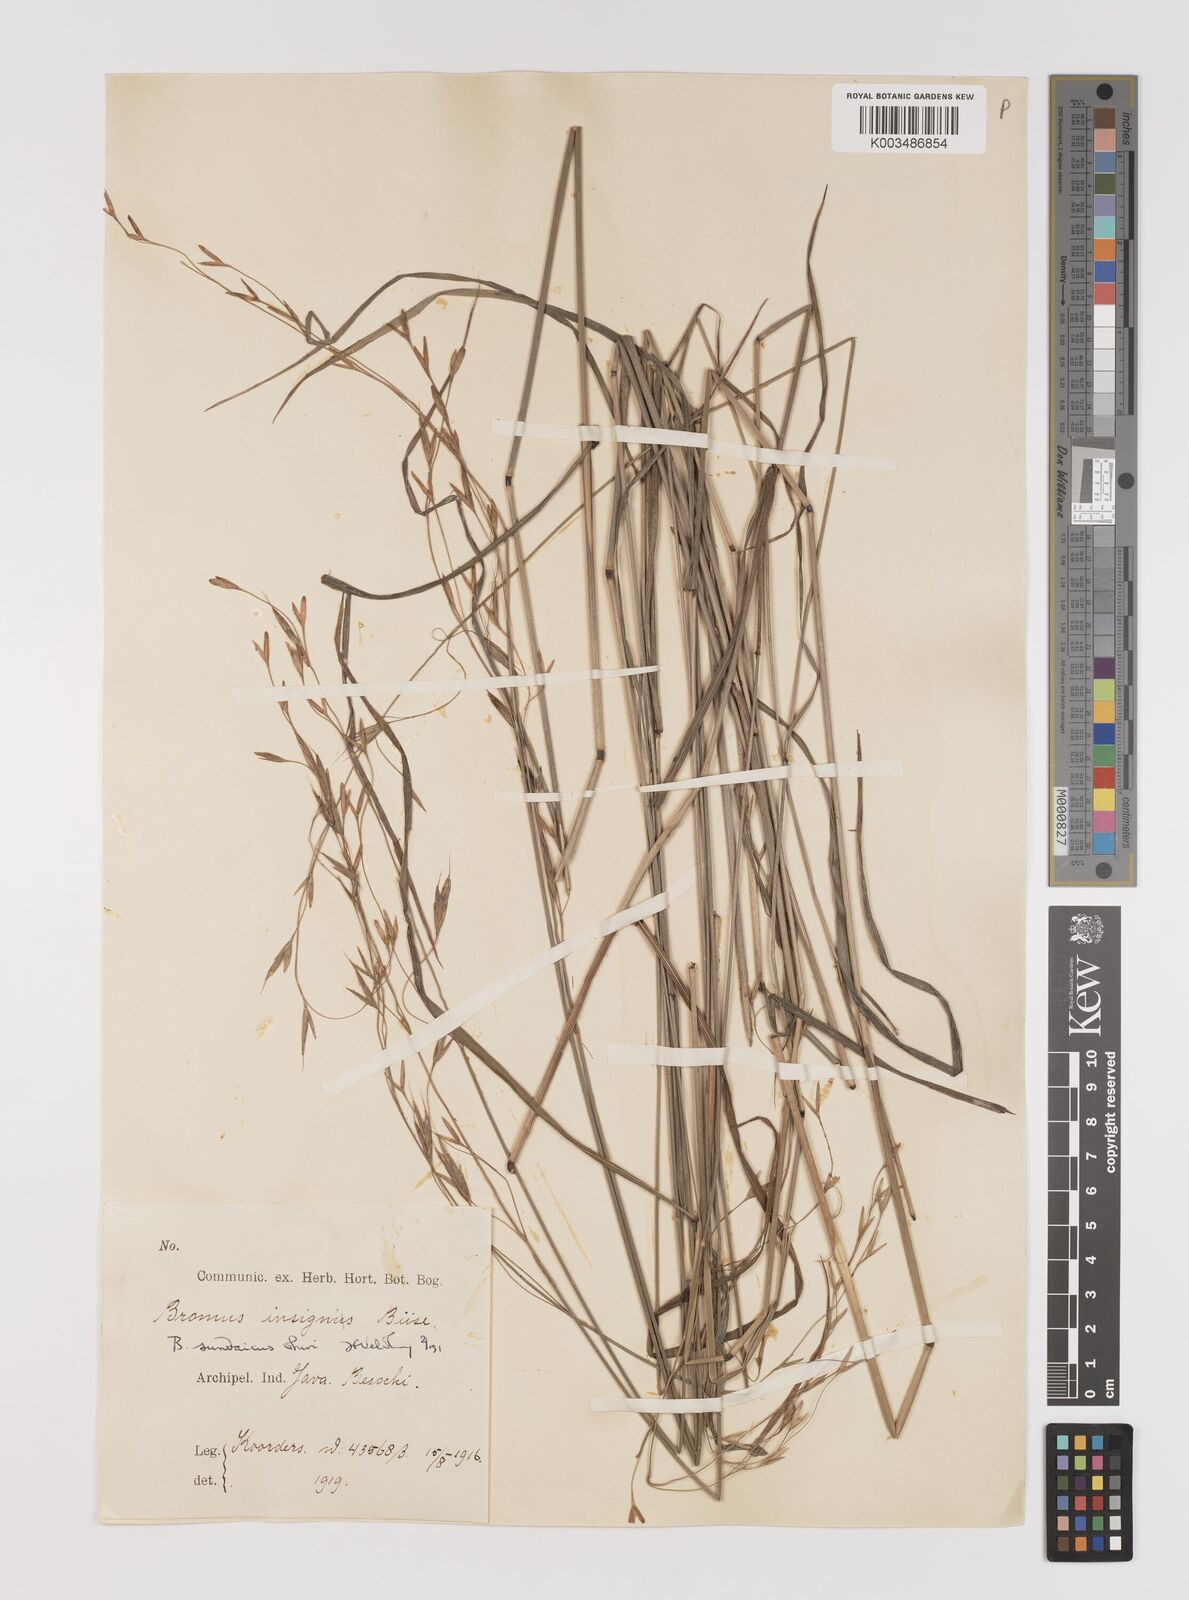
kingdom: Plantae
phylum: Tracheophyta
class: Liliopsida
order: Poales
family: Poaceae
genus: Bromus
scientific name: Bromus sundaicus
